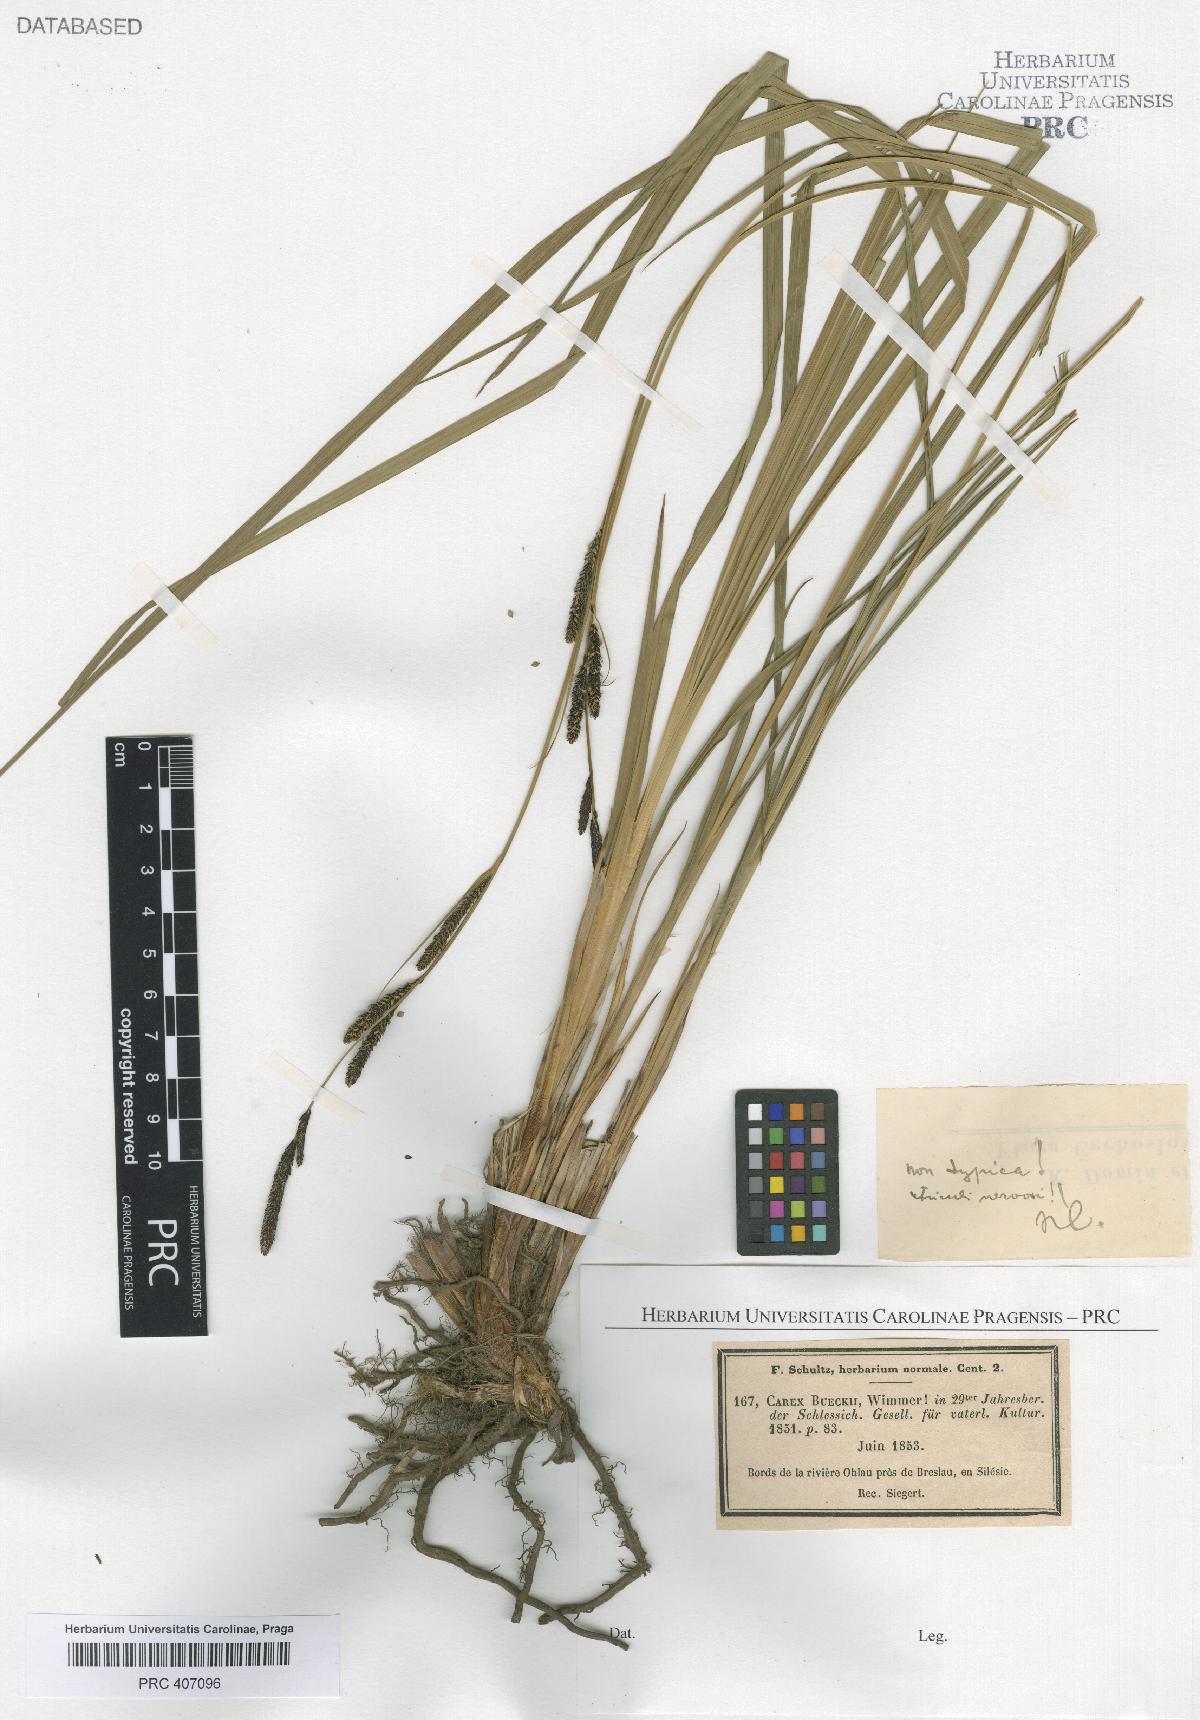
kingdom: Plantae
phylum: Tracheophyta
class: Liliopsida
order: Poales
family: Cyperaceae
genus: Carex
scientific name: Carex buekii
